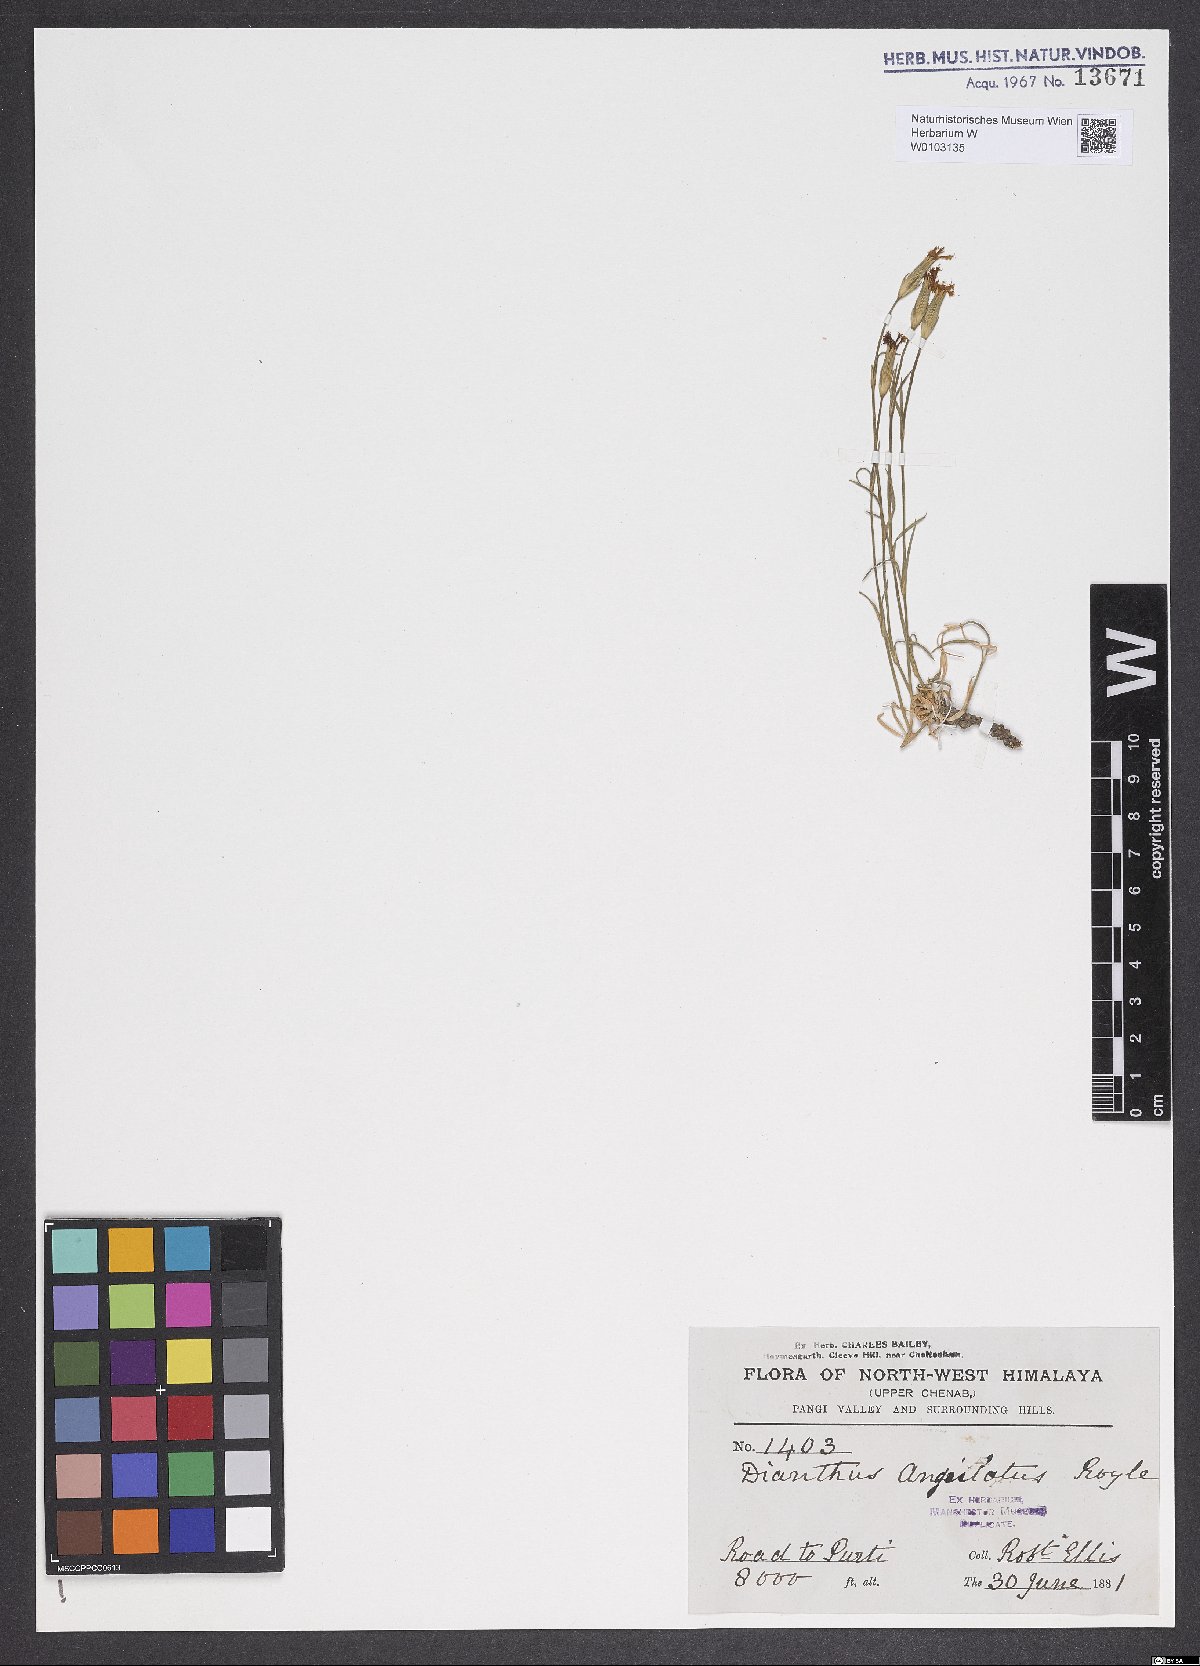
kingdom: Plantae
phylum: Tracheophyta
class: Magnoliopsida
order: Caryophyllales
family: Caryophyllaceae
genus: Dianthus
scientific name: Dianthus angulatus
